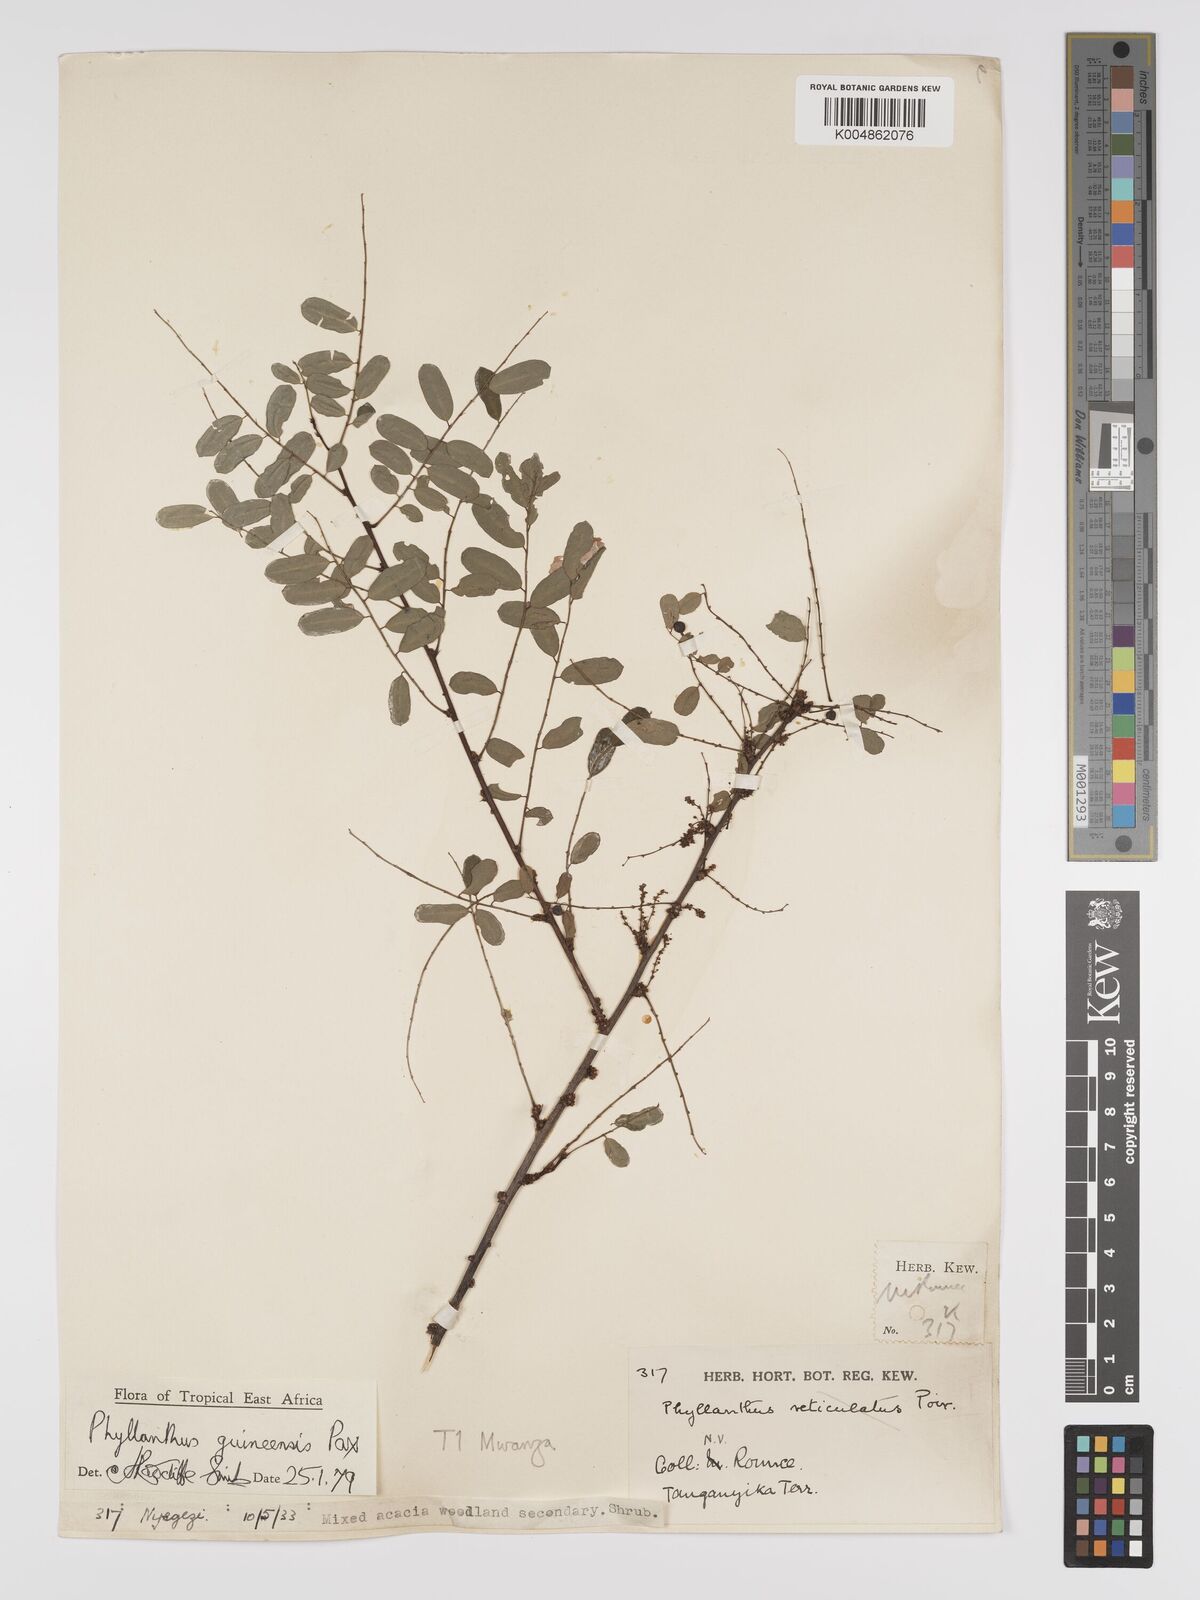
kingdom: Plantae
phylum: Tracheophyta
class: Magnoliopsida
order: Malpighiales
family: Phyllanthaceae
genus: Phyllanthus
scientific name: Phyllanthus ovalifolius
